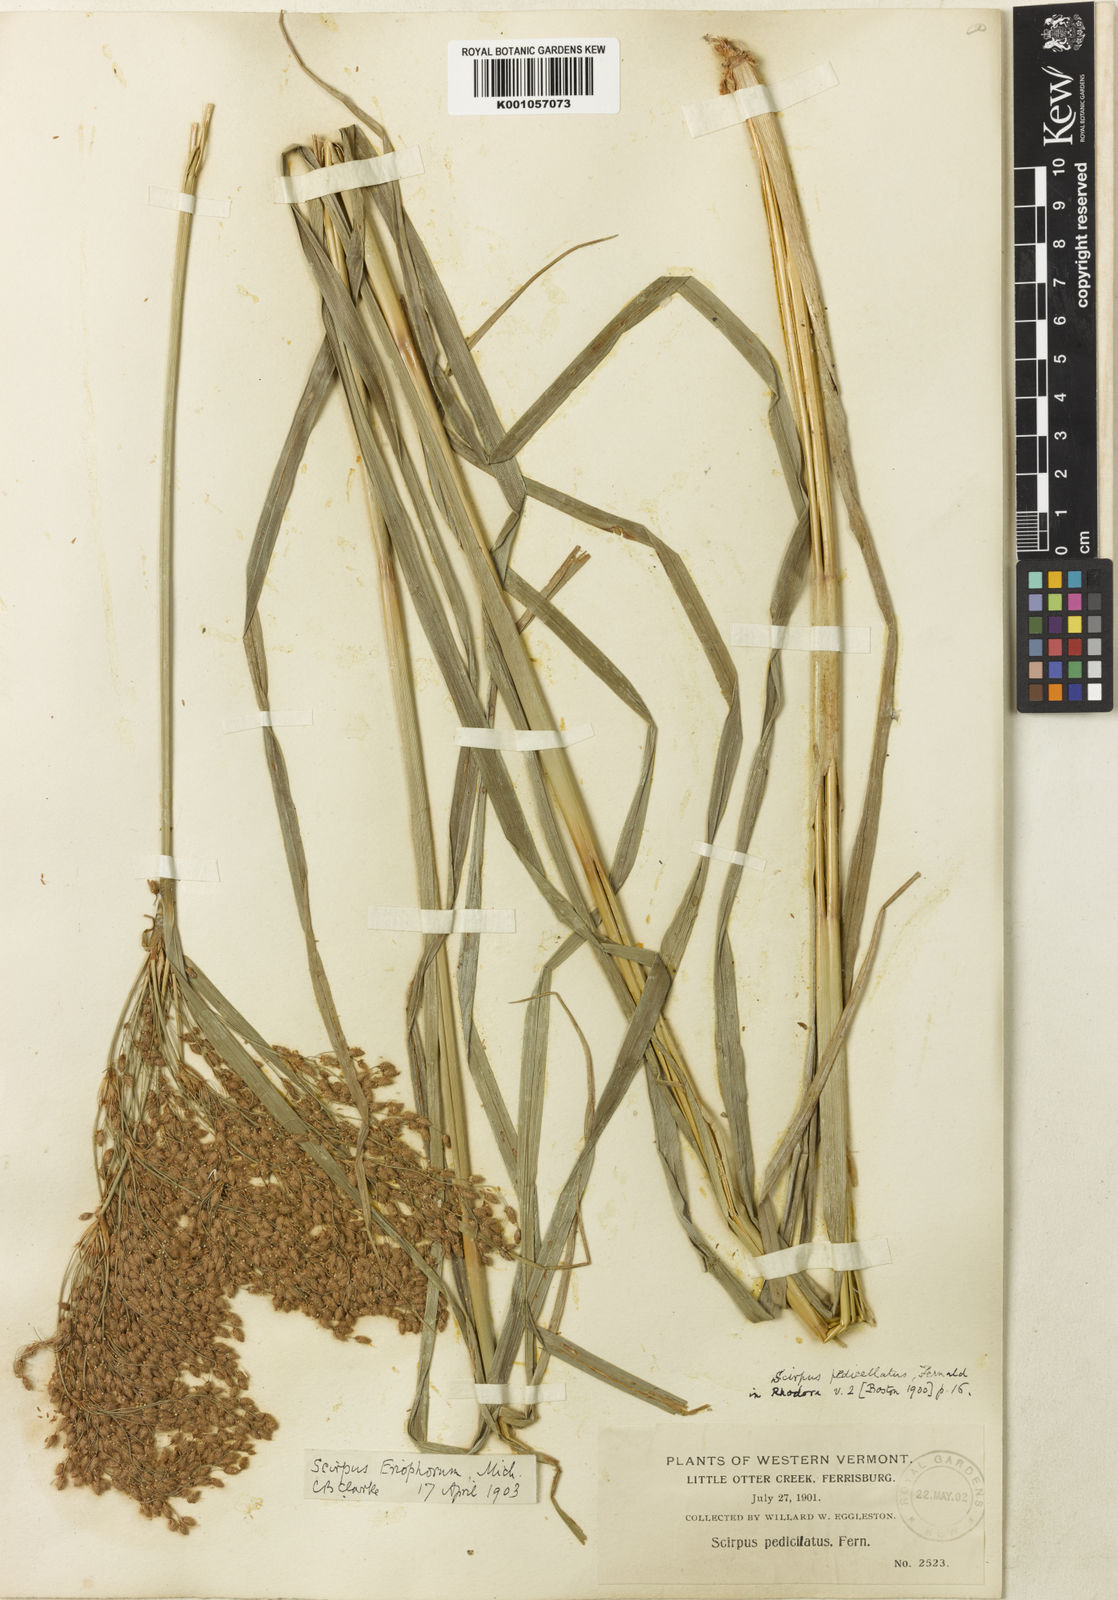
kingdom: Plantae
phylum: Tracheophyta
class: Liliopsida
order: Poales
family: Cyperaceae
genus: Scirpus
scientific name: Scirpus cyperinus
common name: Black-sheathed bulrush
